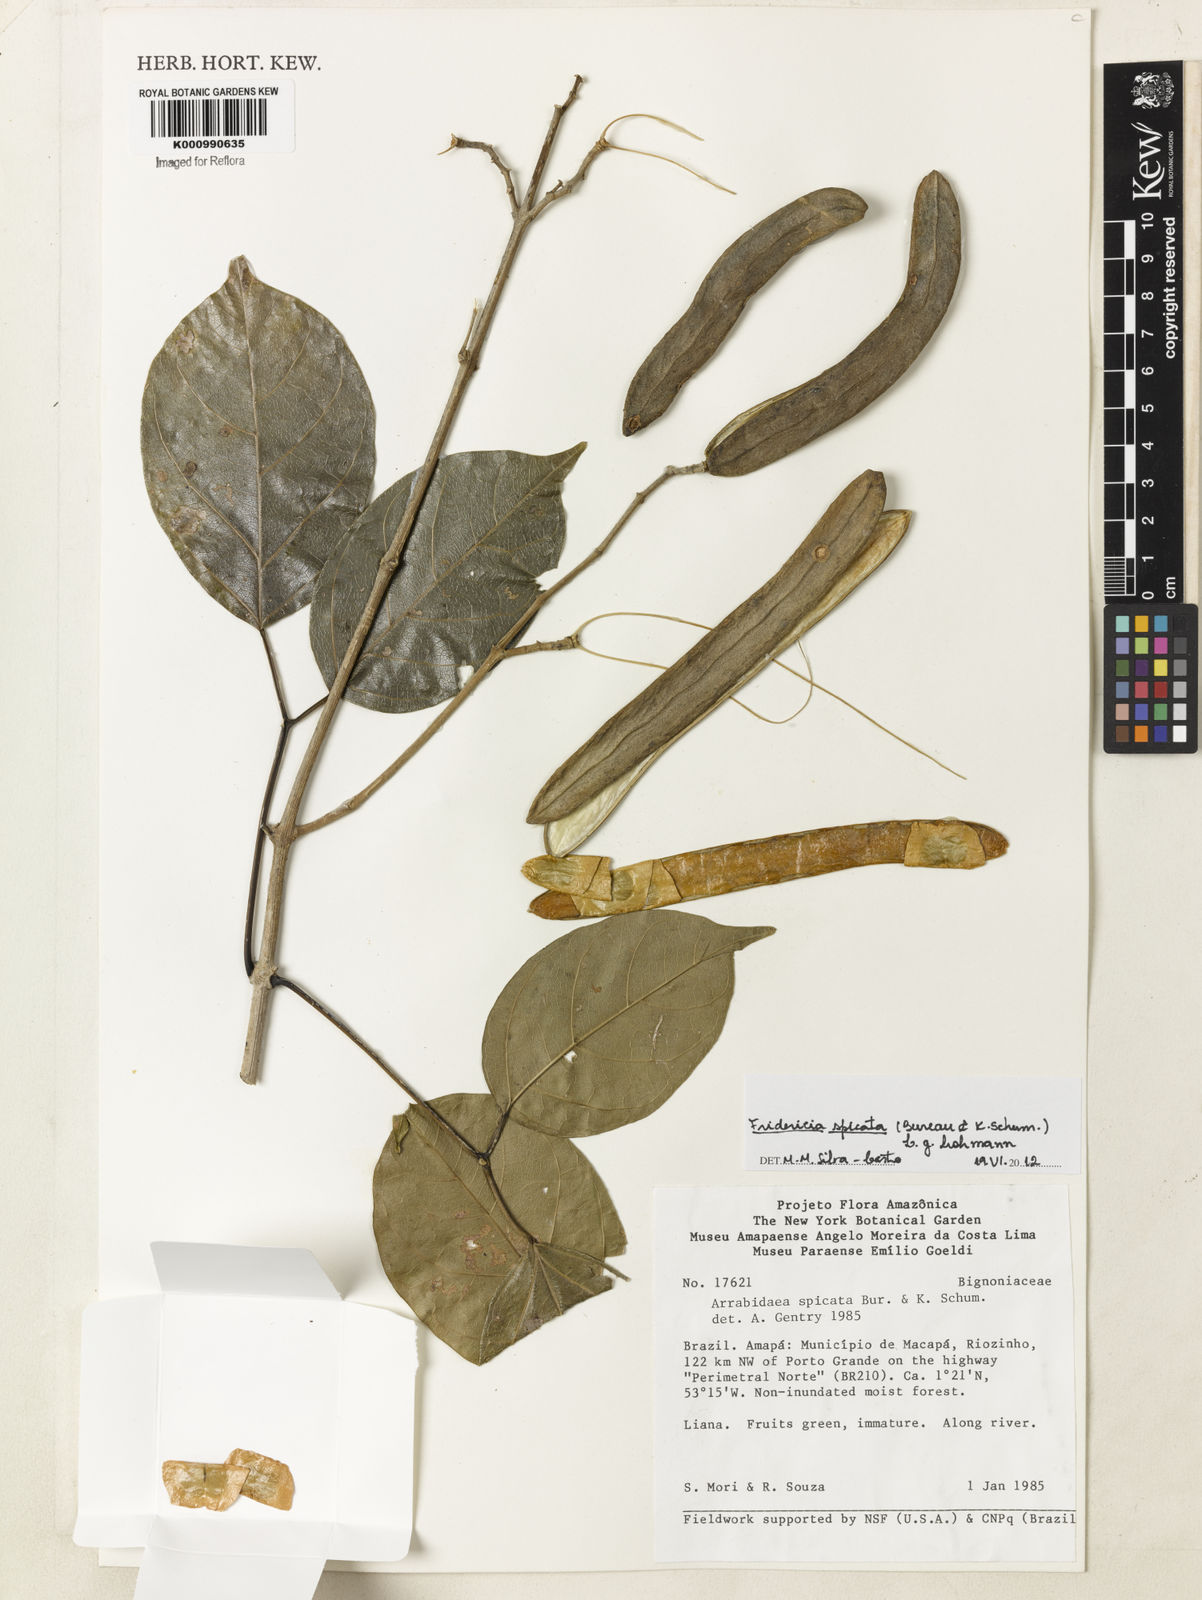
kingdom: Plantae
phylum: Tracheophyta
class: Magnoliopsida
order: Lamiales
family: Bignoniaceae
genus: Fridericia
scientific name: Fridericia spicata
